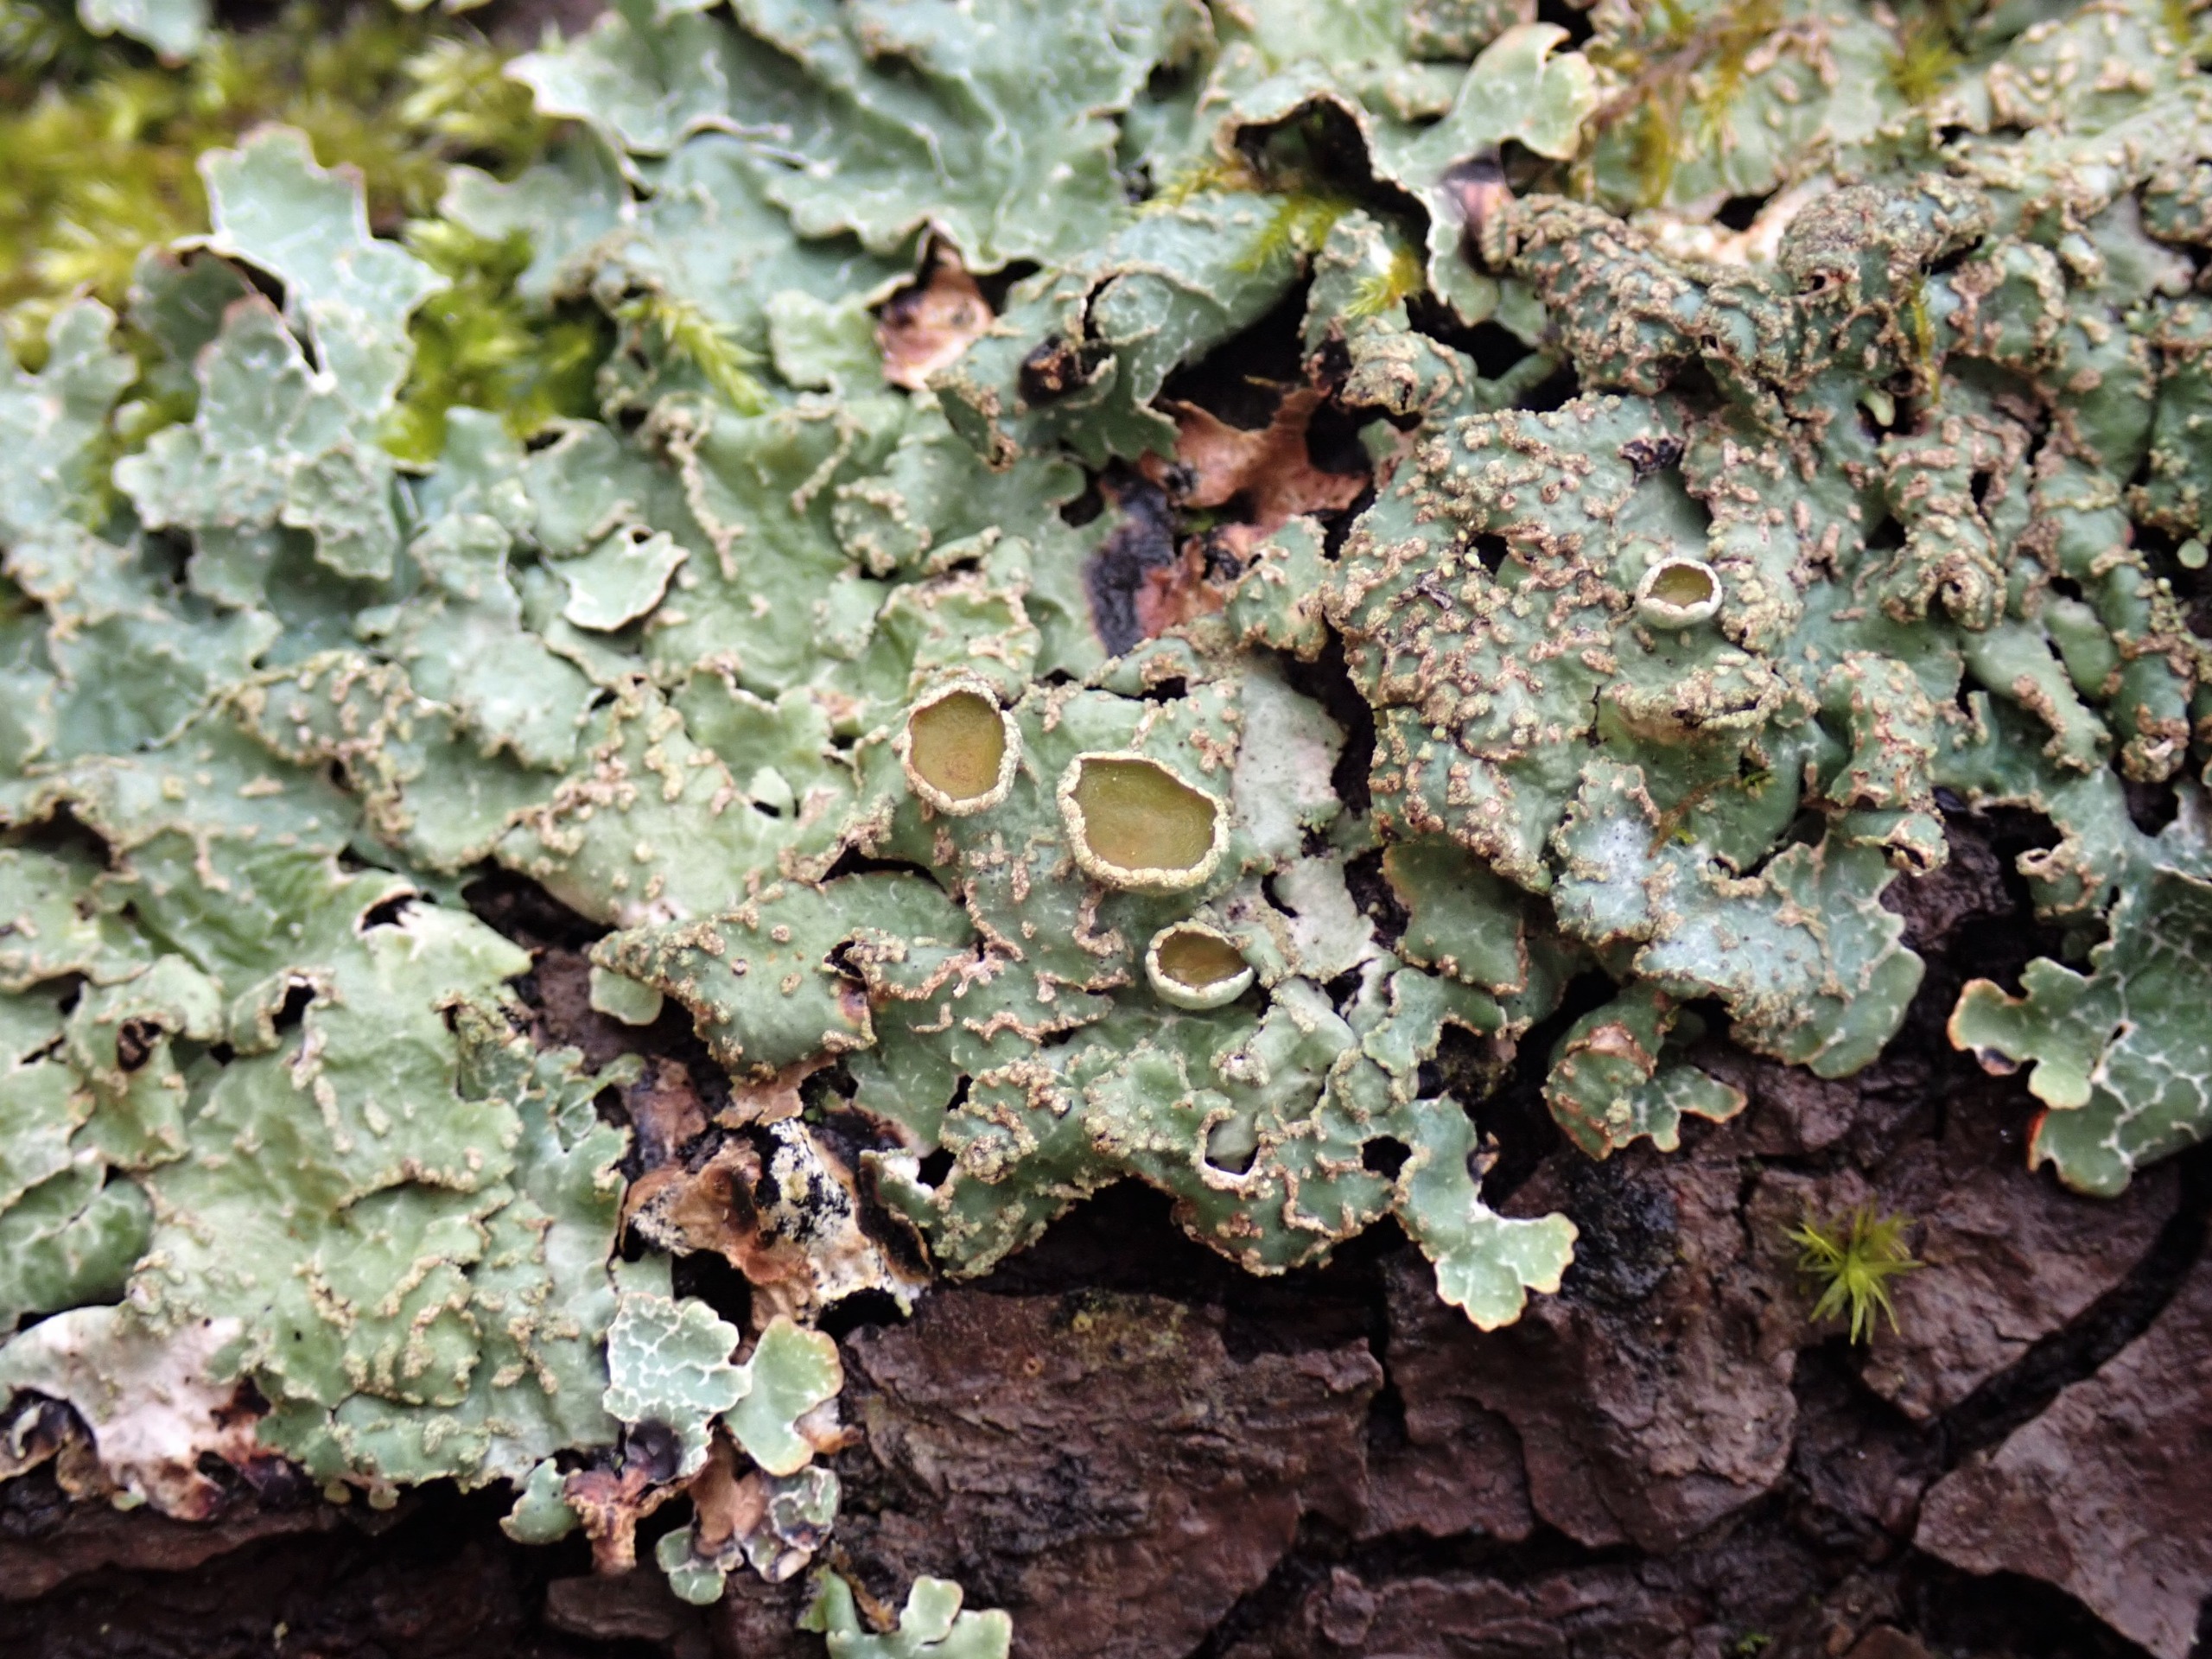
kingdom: Fungi
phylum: Ascomycota
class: Lecanoromycetes
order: Lecanorales
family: Parmeliaceae
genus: Parmelia
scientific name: Parmelia sulcata
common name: Rynket skållav
